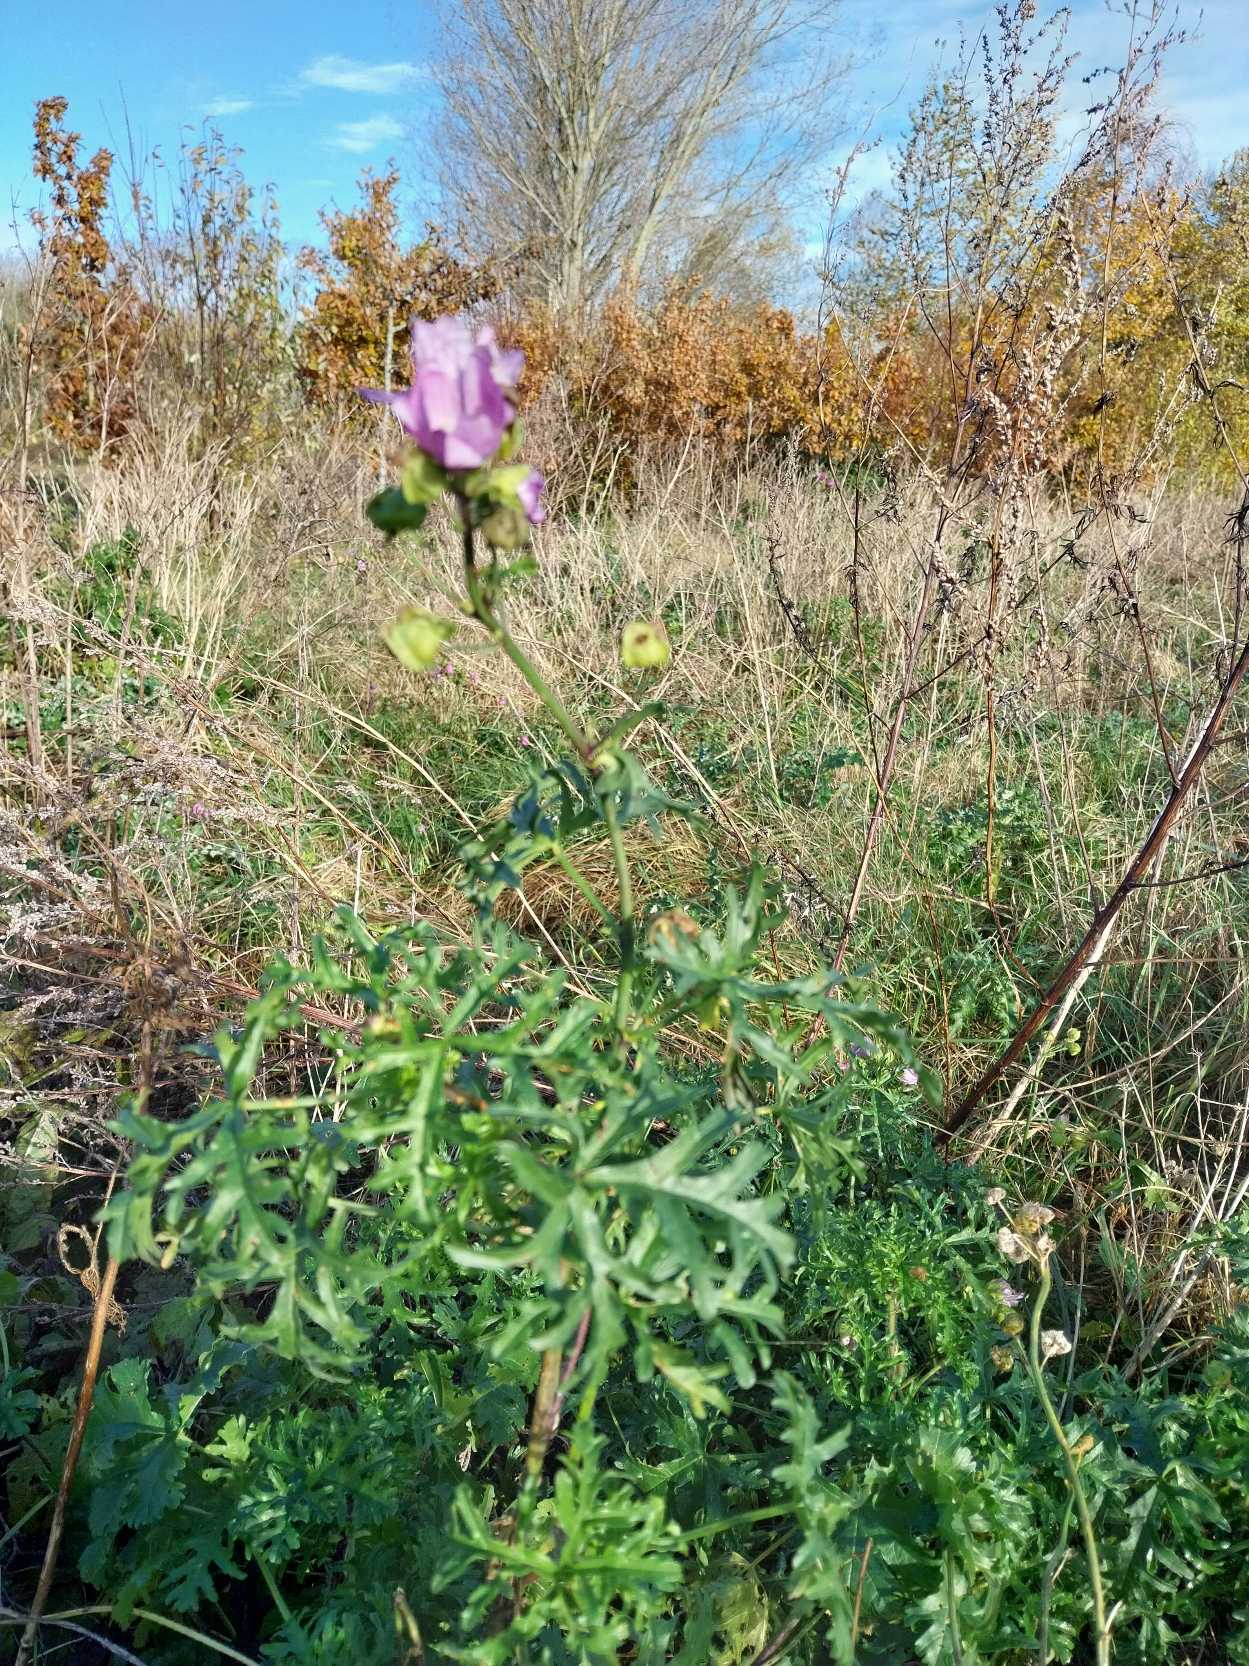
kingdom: Plantae
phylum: Tracheophyta
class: Magnoliopsida
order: Malvales
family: Malvaceae
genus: Malva
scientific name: Malva moschata
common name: Moskus-katost
